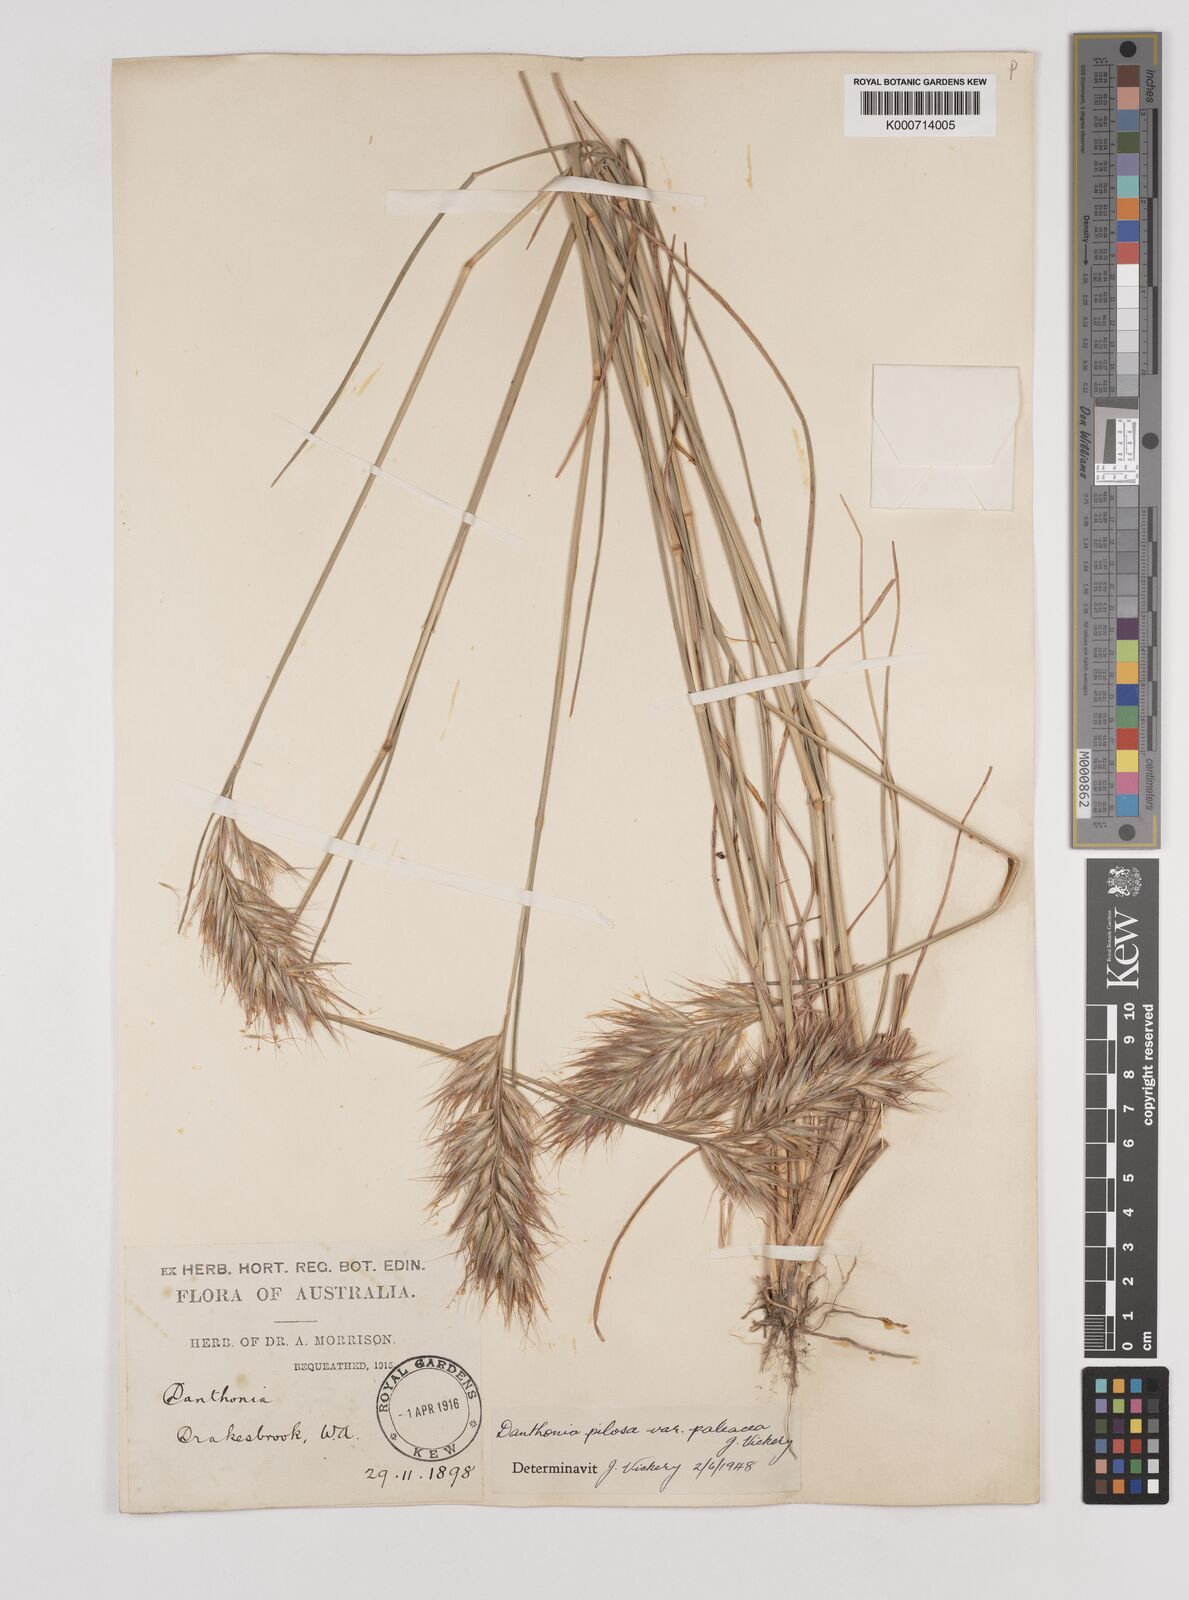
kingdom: Plantae
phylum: Tracheophyta
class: Liliopsida
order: Poales
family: Poaceae
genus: Rytidosperma
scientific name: Rytidosperma pilosum
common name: Hairy wallaby grass
